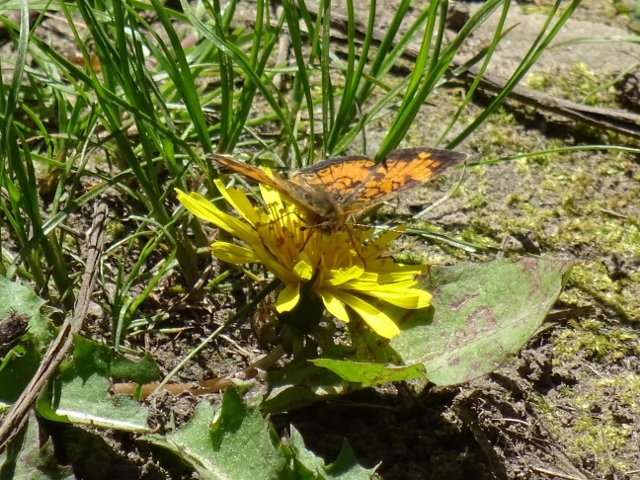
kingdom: Animalia
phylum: Arthropoda
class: Insecta
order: Lepidoptera
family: Nymphalidae
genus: Phyciodes
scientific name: Phyciodes tharos
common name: Pearl Crescent
